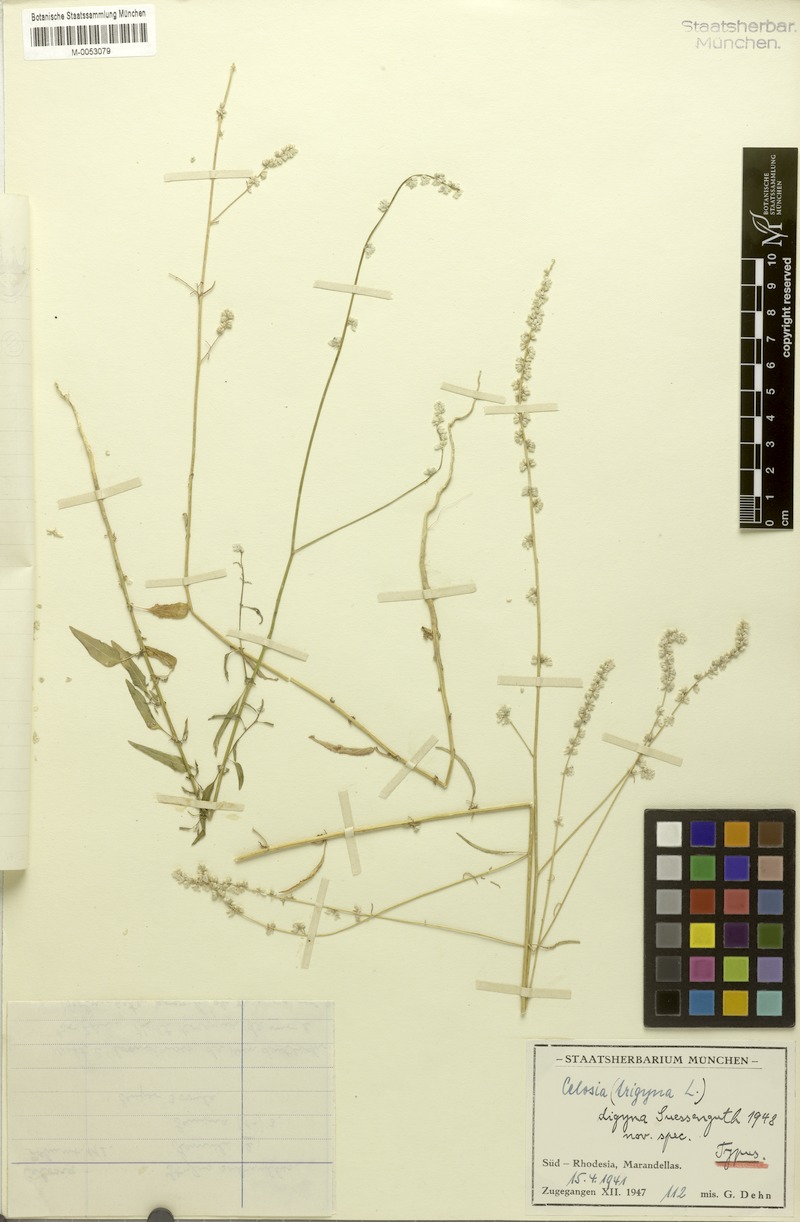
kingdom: Plantae
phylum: Tracheophyta
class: Magnoliopsida
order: Caryophyllales
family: Amaranthaceae
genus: Celosia
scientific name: Celosia trigyna
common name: Woolflower
